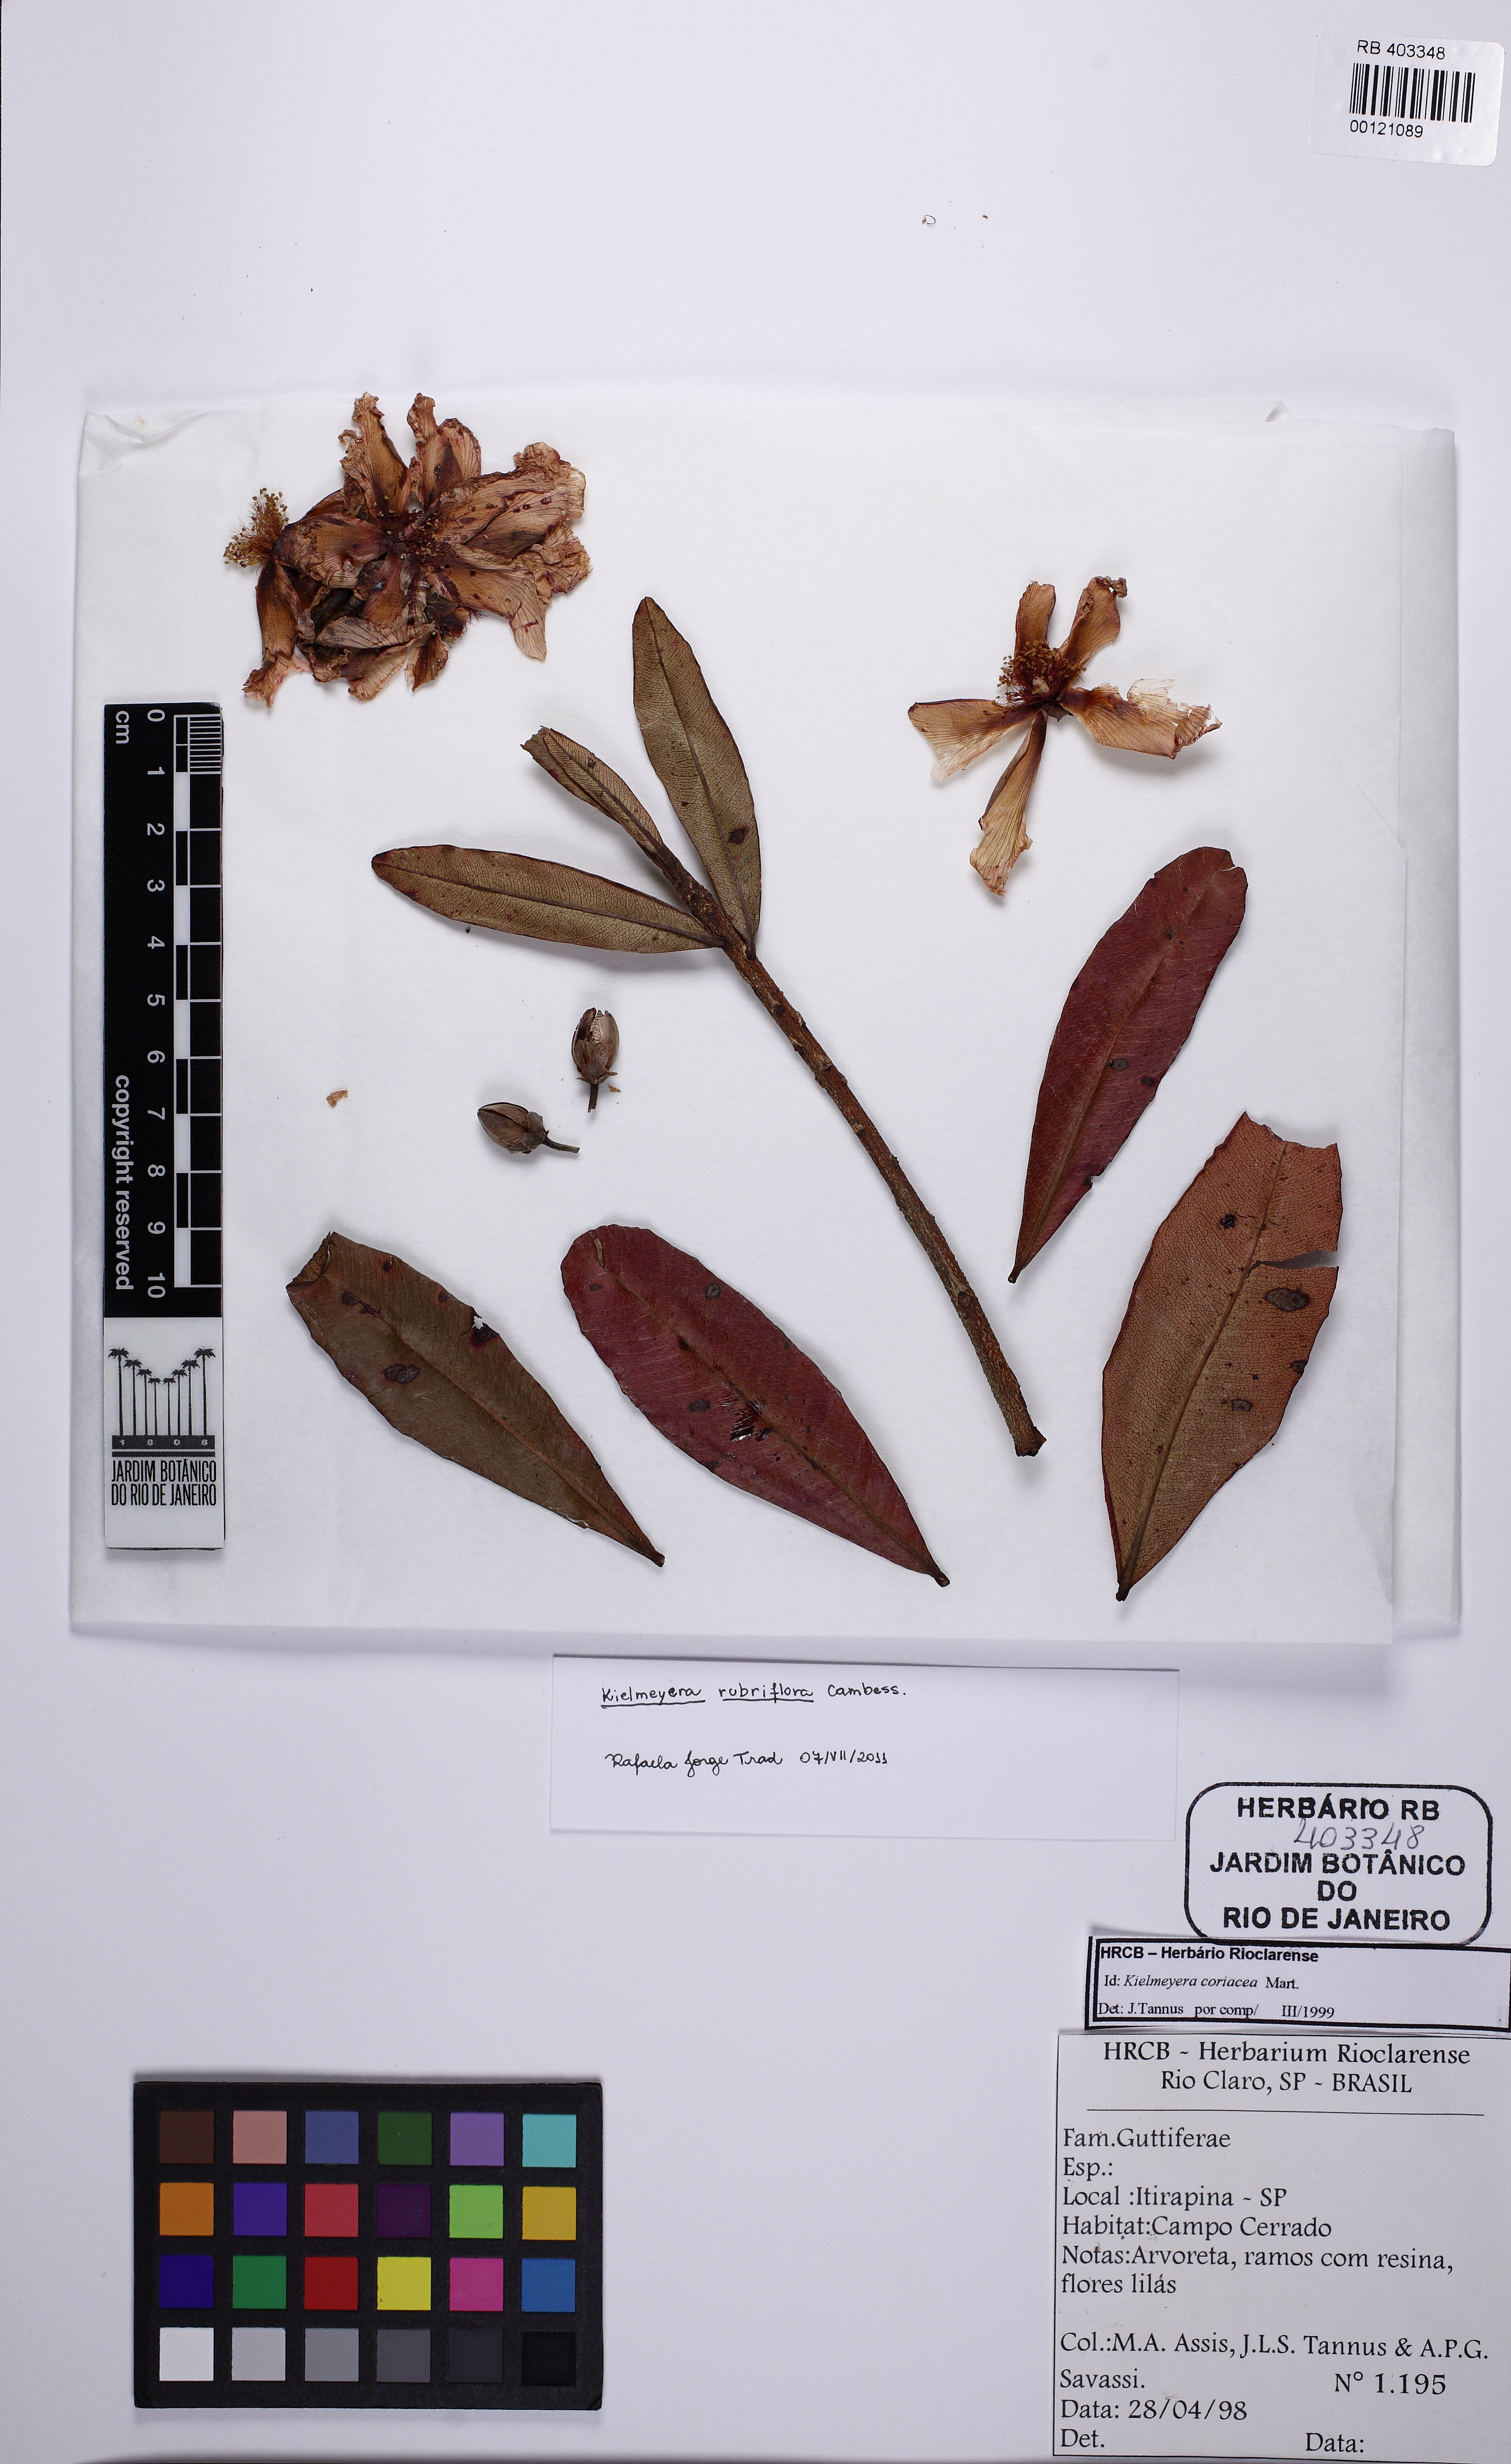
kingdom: Plantae
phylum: Tracheophyta
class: Magnoliopsida
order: Malpighiales
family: Calophyllaceae
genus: Kielmeyera
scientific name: Kielmeyera rubriflora
